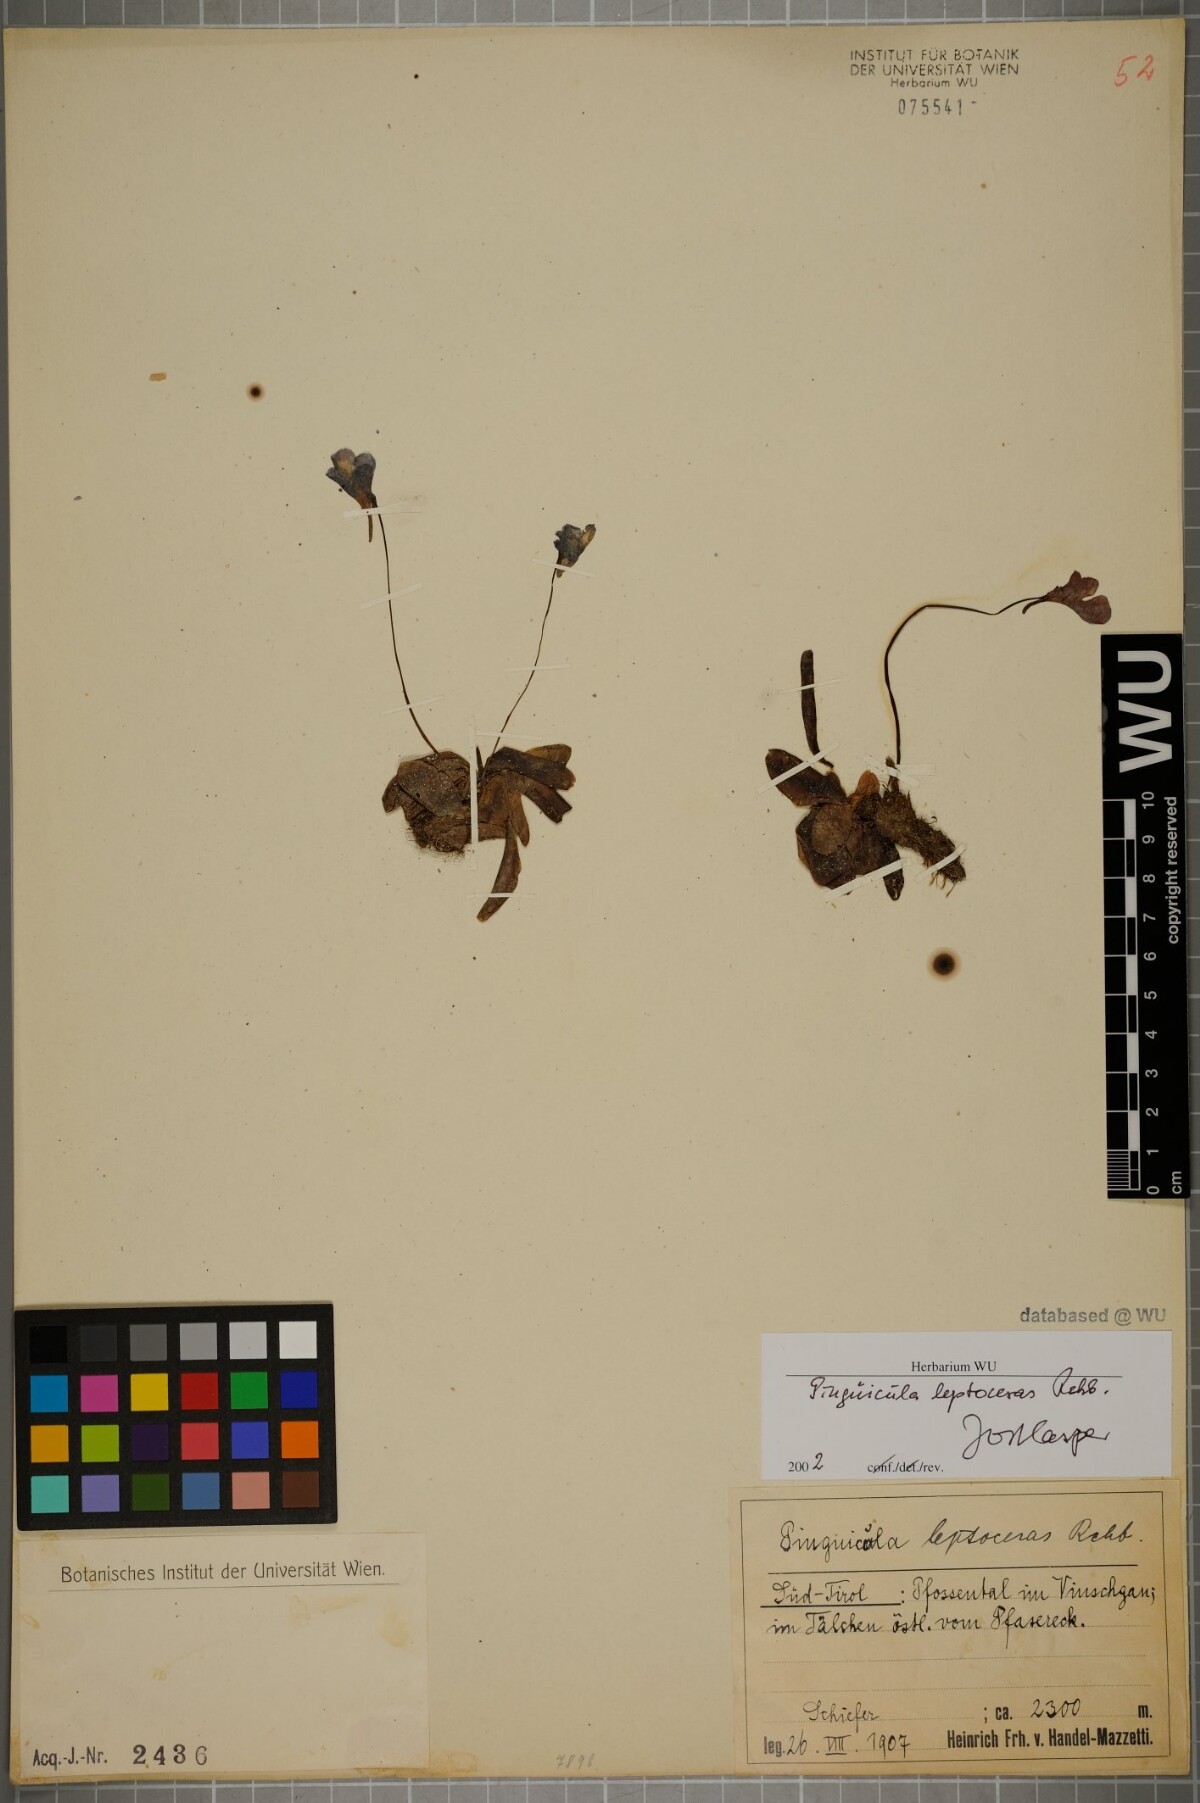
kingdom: Plantae
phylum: Tracheophyta
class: Magnoliopsida
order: Lamiales
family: Lentibulariaceae
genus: Pinguicula
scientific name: Pinguicula leptoceras
